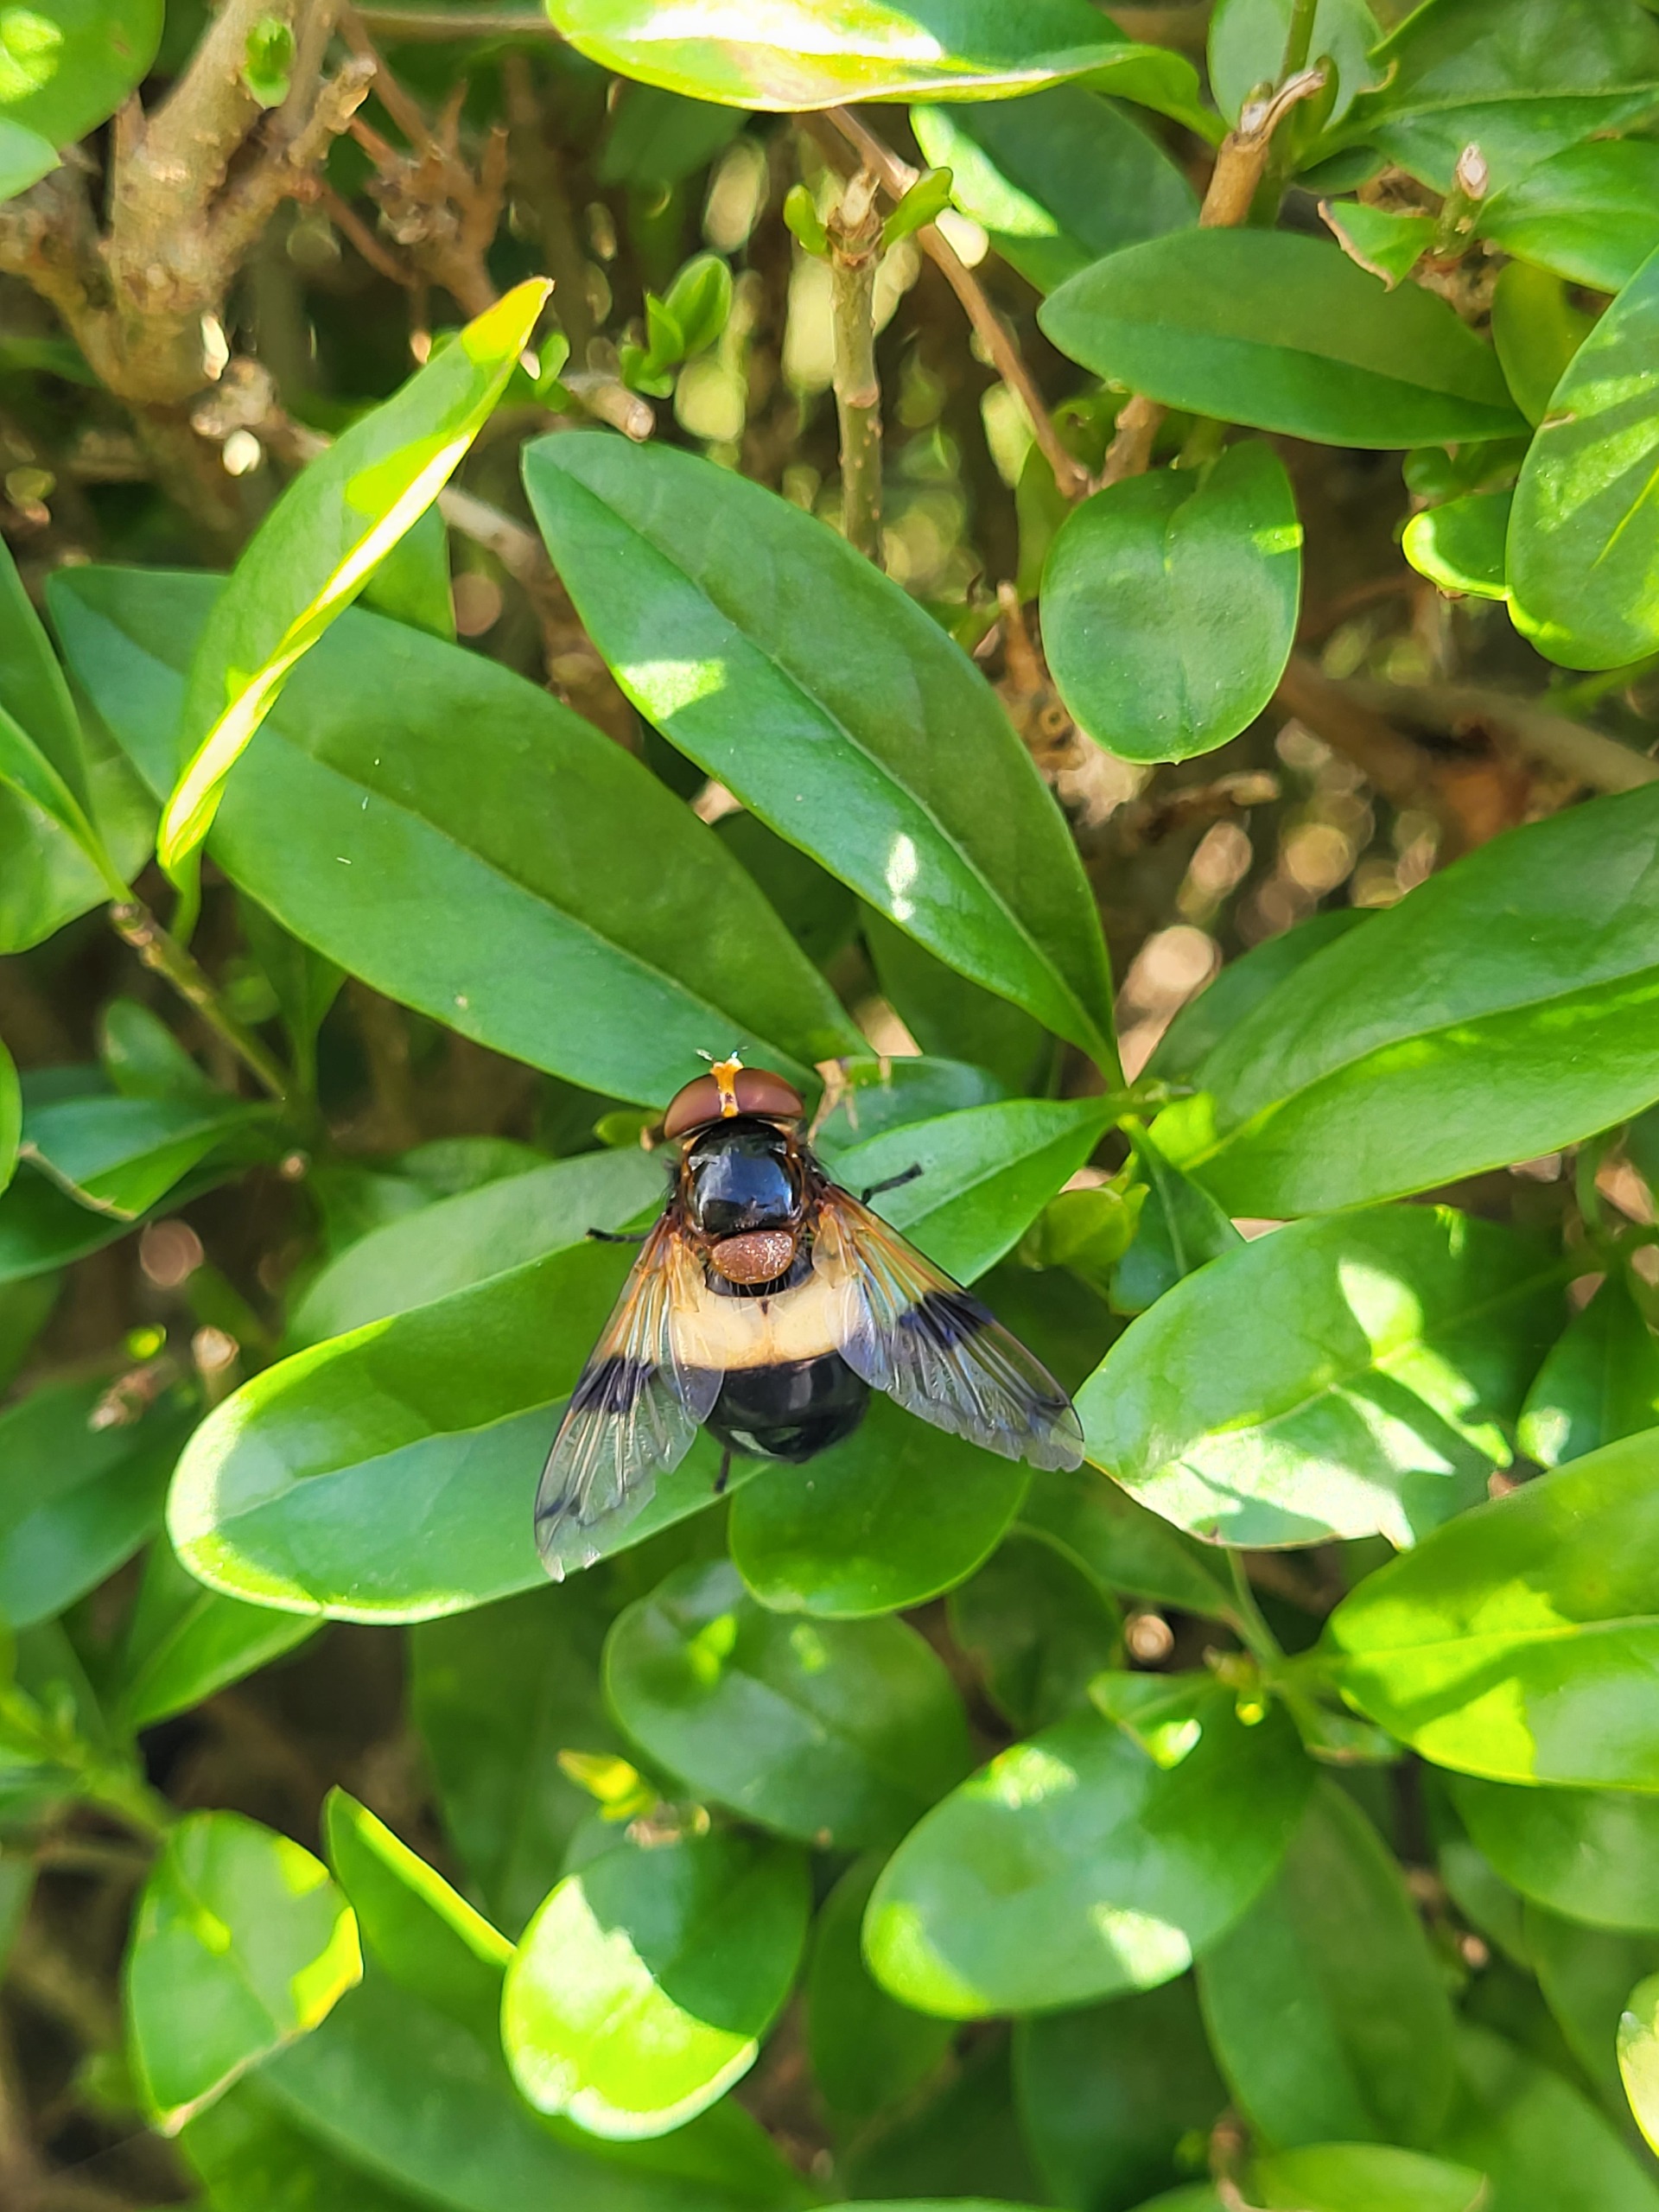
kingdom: Animalia
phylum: Arthropoda
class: Insecta
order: Diptera
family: Syrphidae
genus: Volucella
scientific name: Volucella pellucens
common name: Hvidbåndet humlesvirreflue
